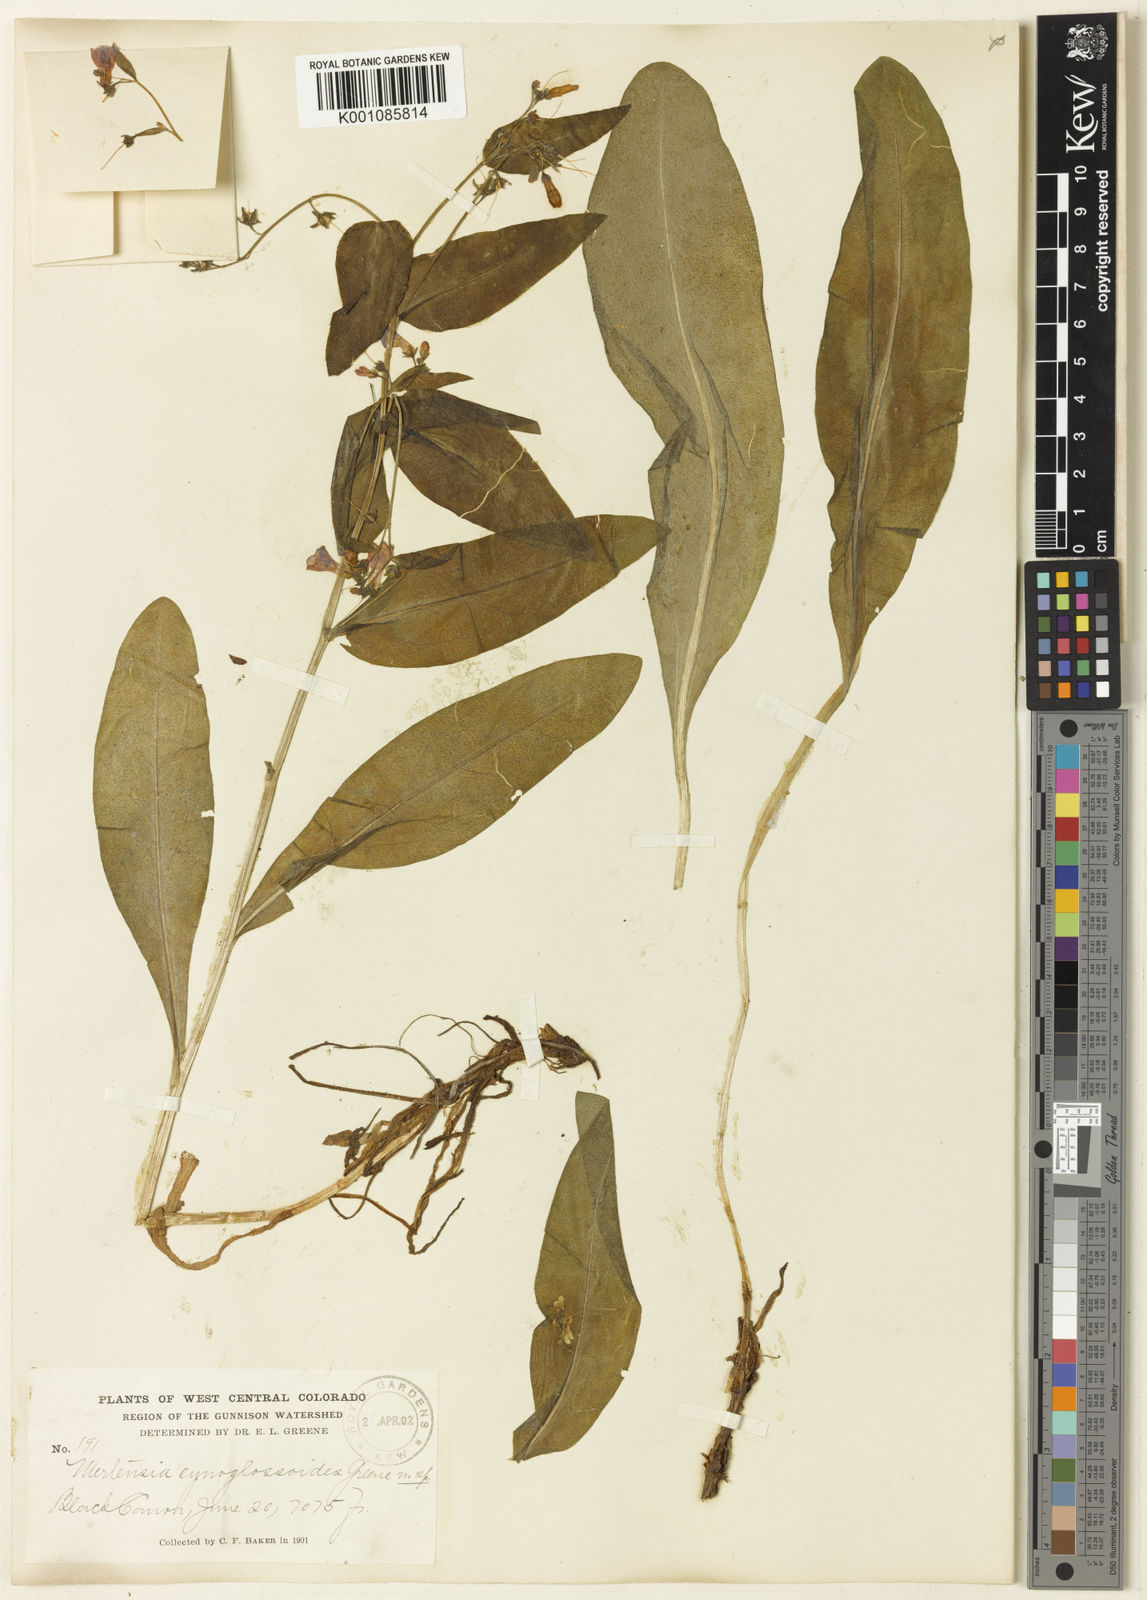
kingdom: Plantae
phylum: Tracheophyta
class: Magnoliopsida
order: Boraginales
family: Boraginaceae
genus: Mertensia
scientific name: Mertensia cynoglossoides
